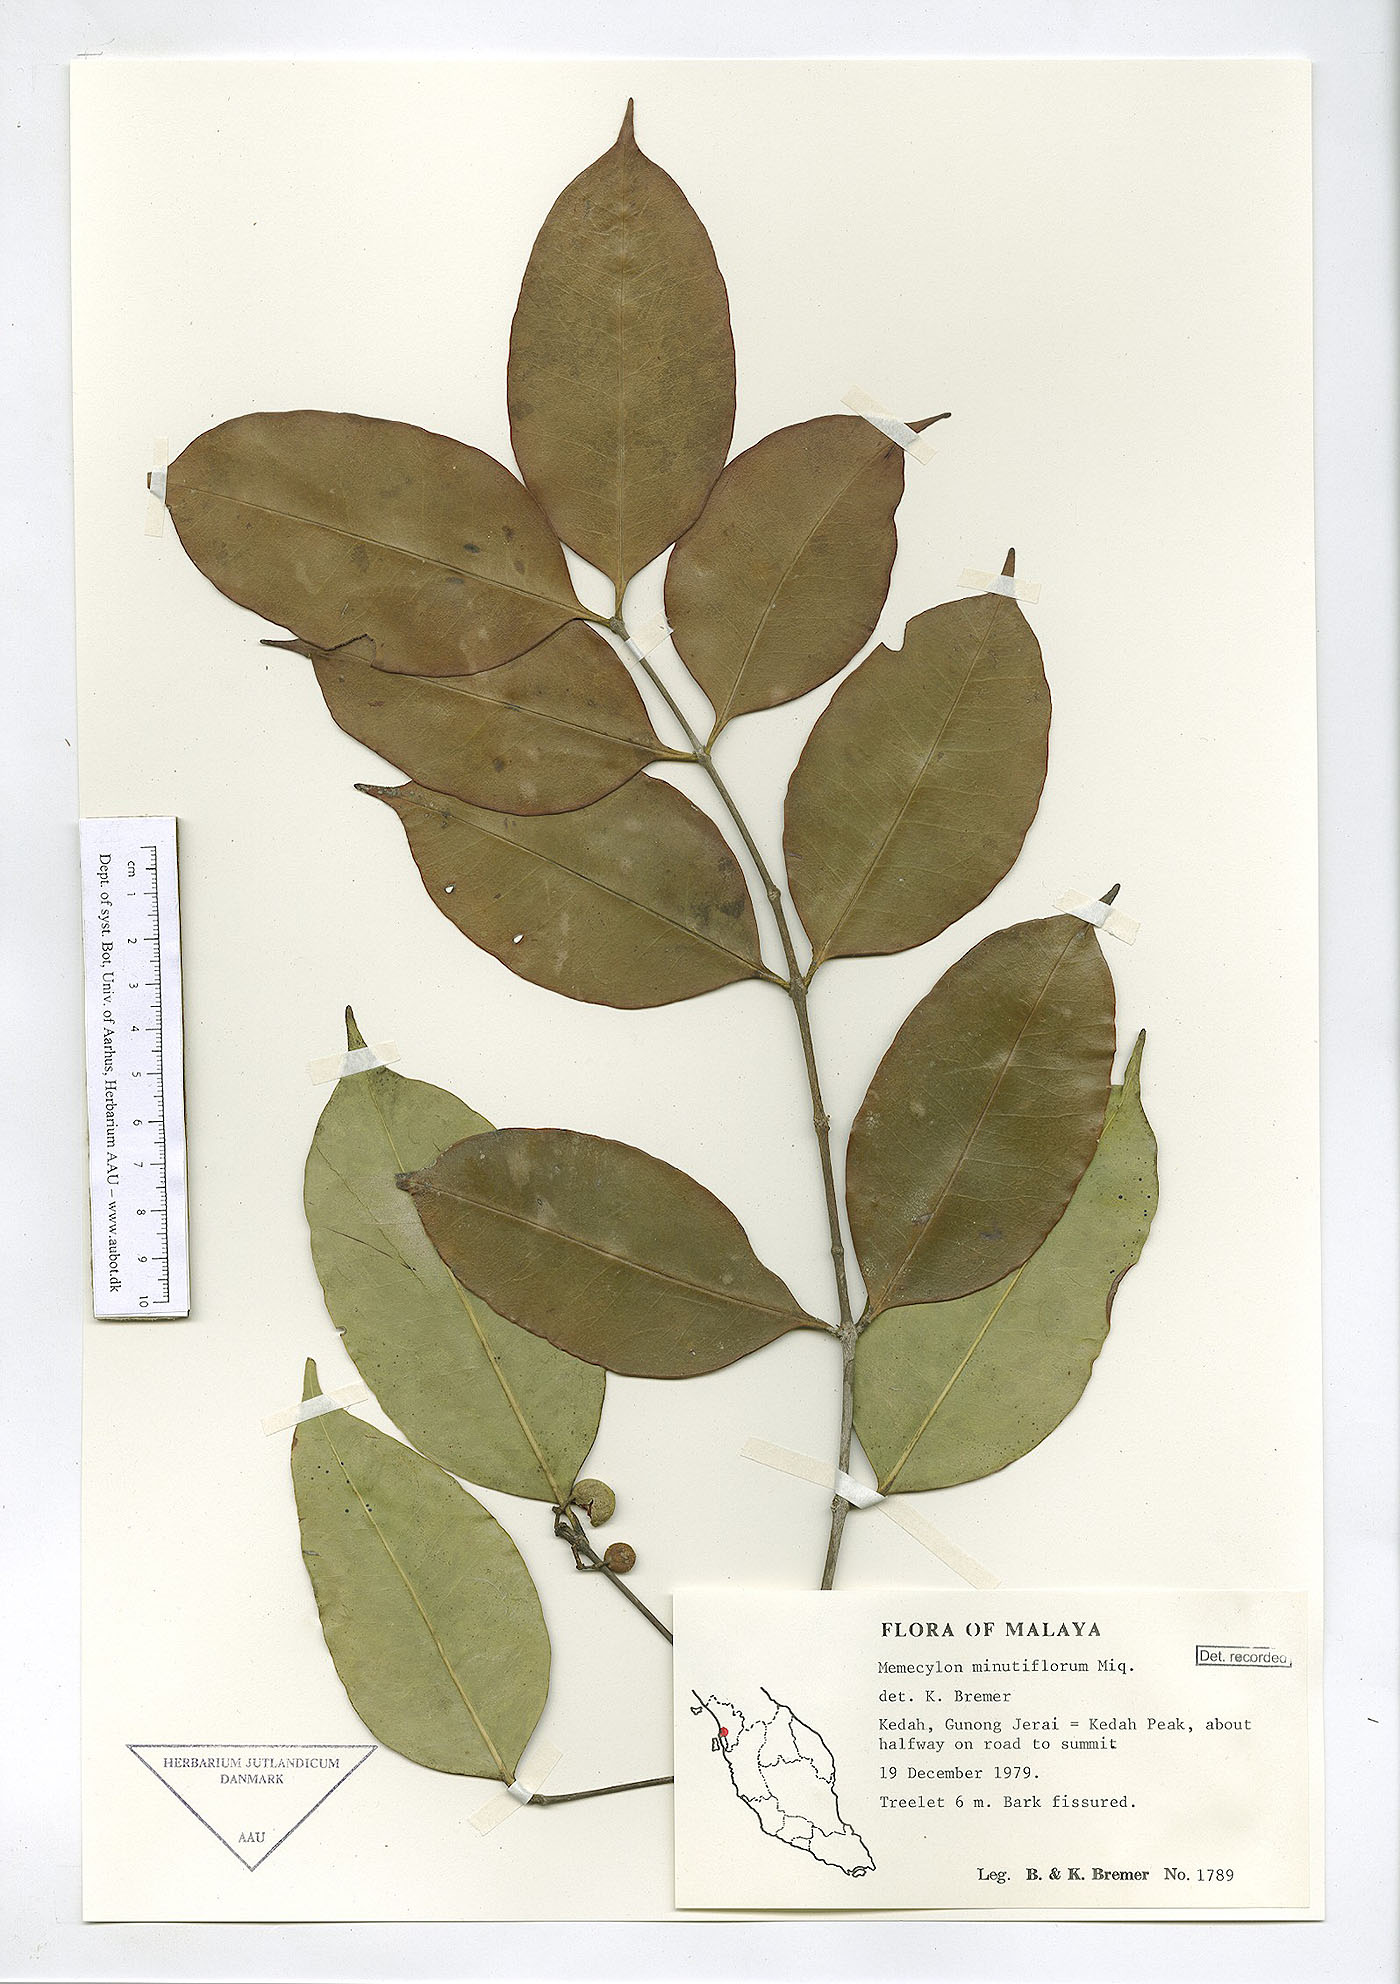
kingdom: Plantae
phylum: Tracheophyta
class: Magnoliopsida
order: Myrtales
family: Melastomataceae
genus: Memecylon
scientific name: Memecylon minutiflorum
